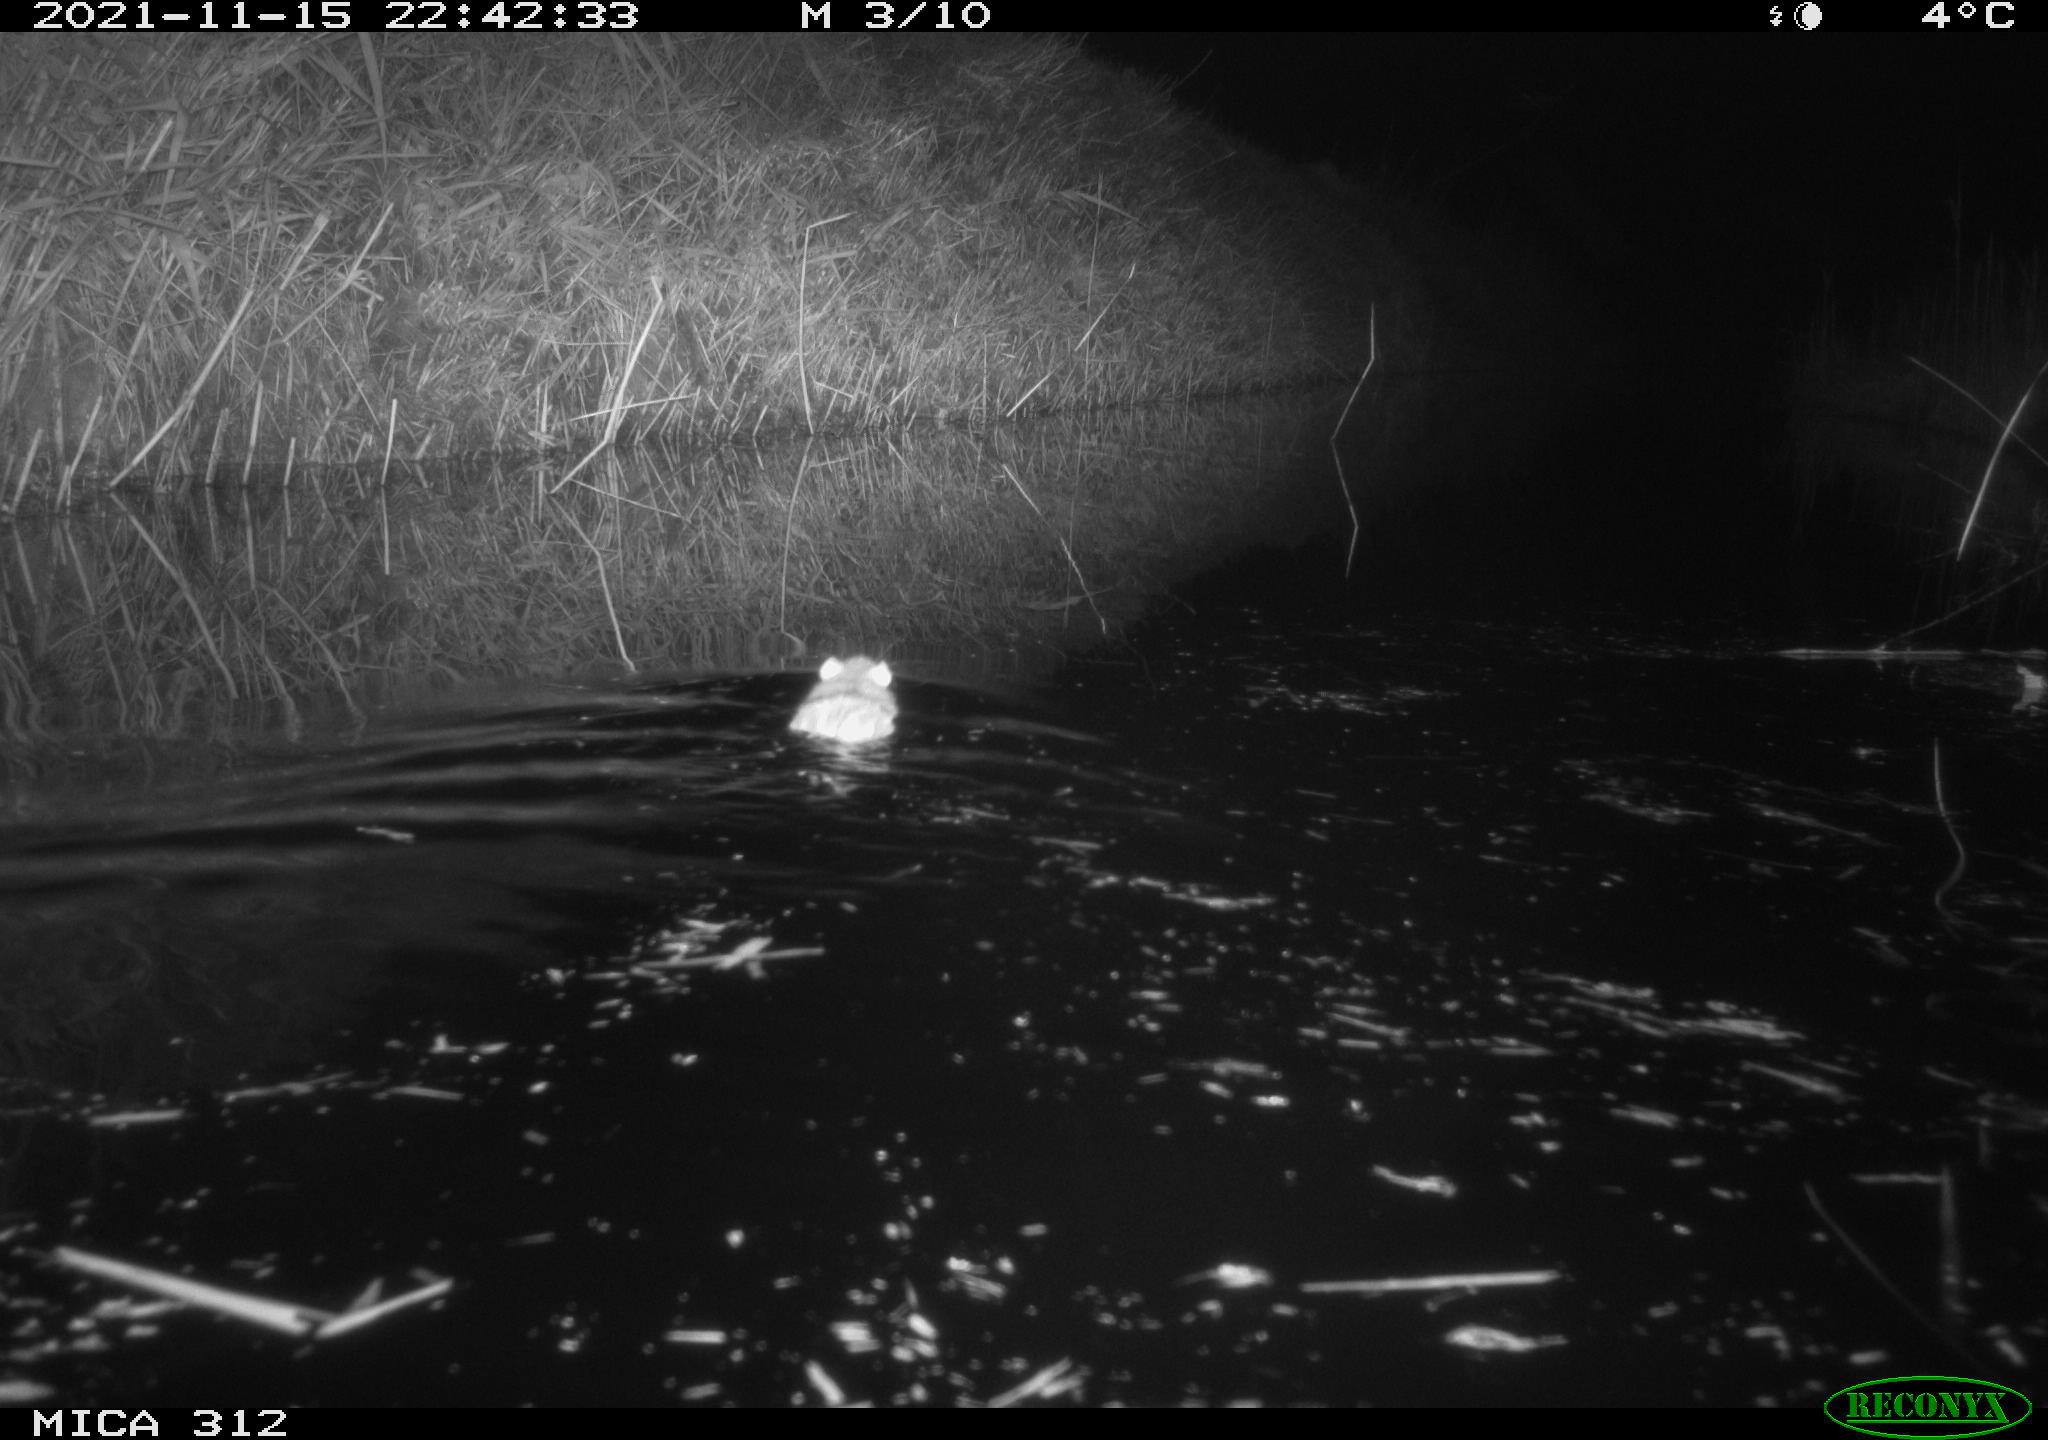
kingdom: Animalia
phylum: Chordata
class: Mammalia
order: Rodentia
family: Muridae
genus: Rattus
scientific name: Rattus norvegicus
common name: Brown rat
